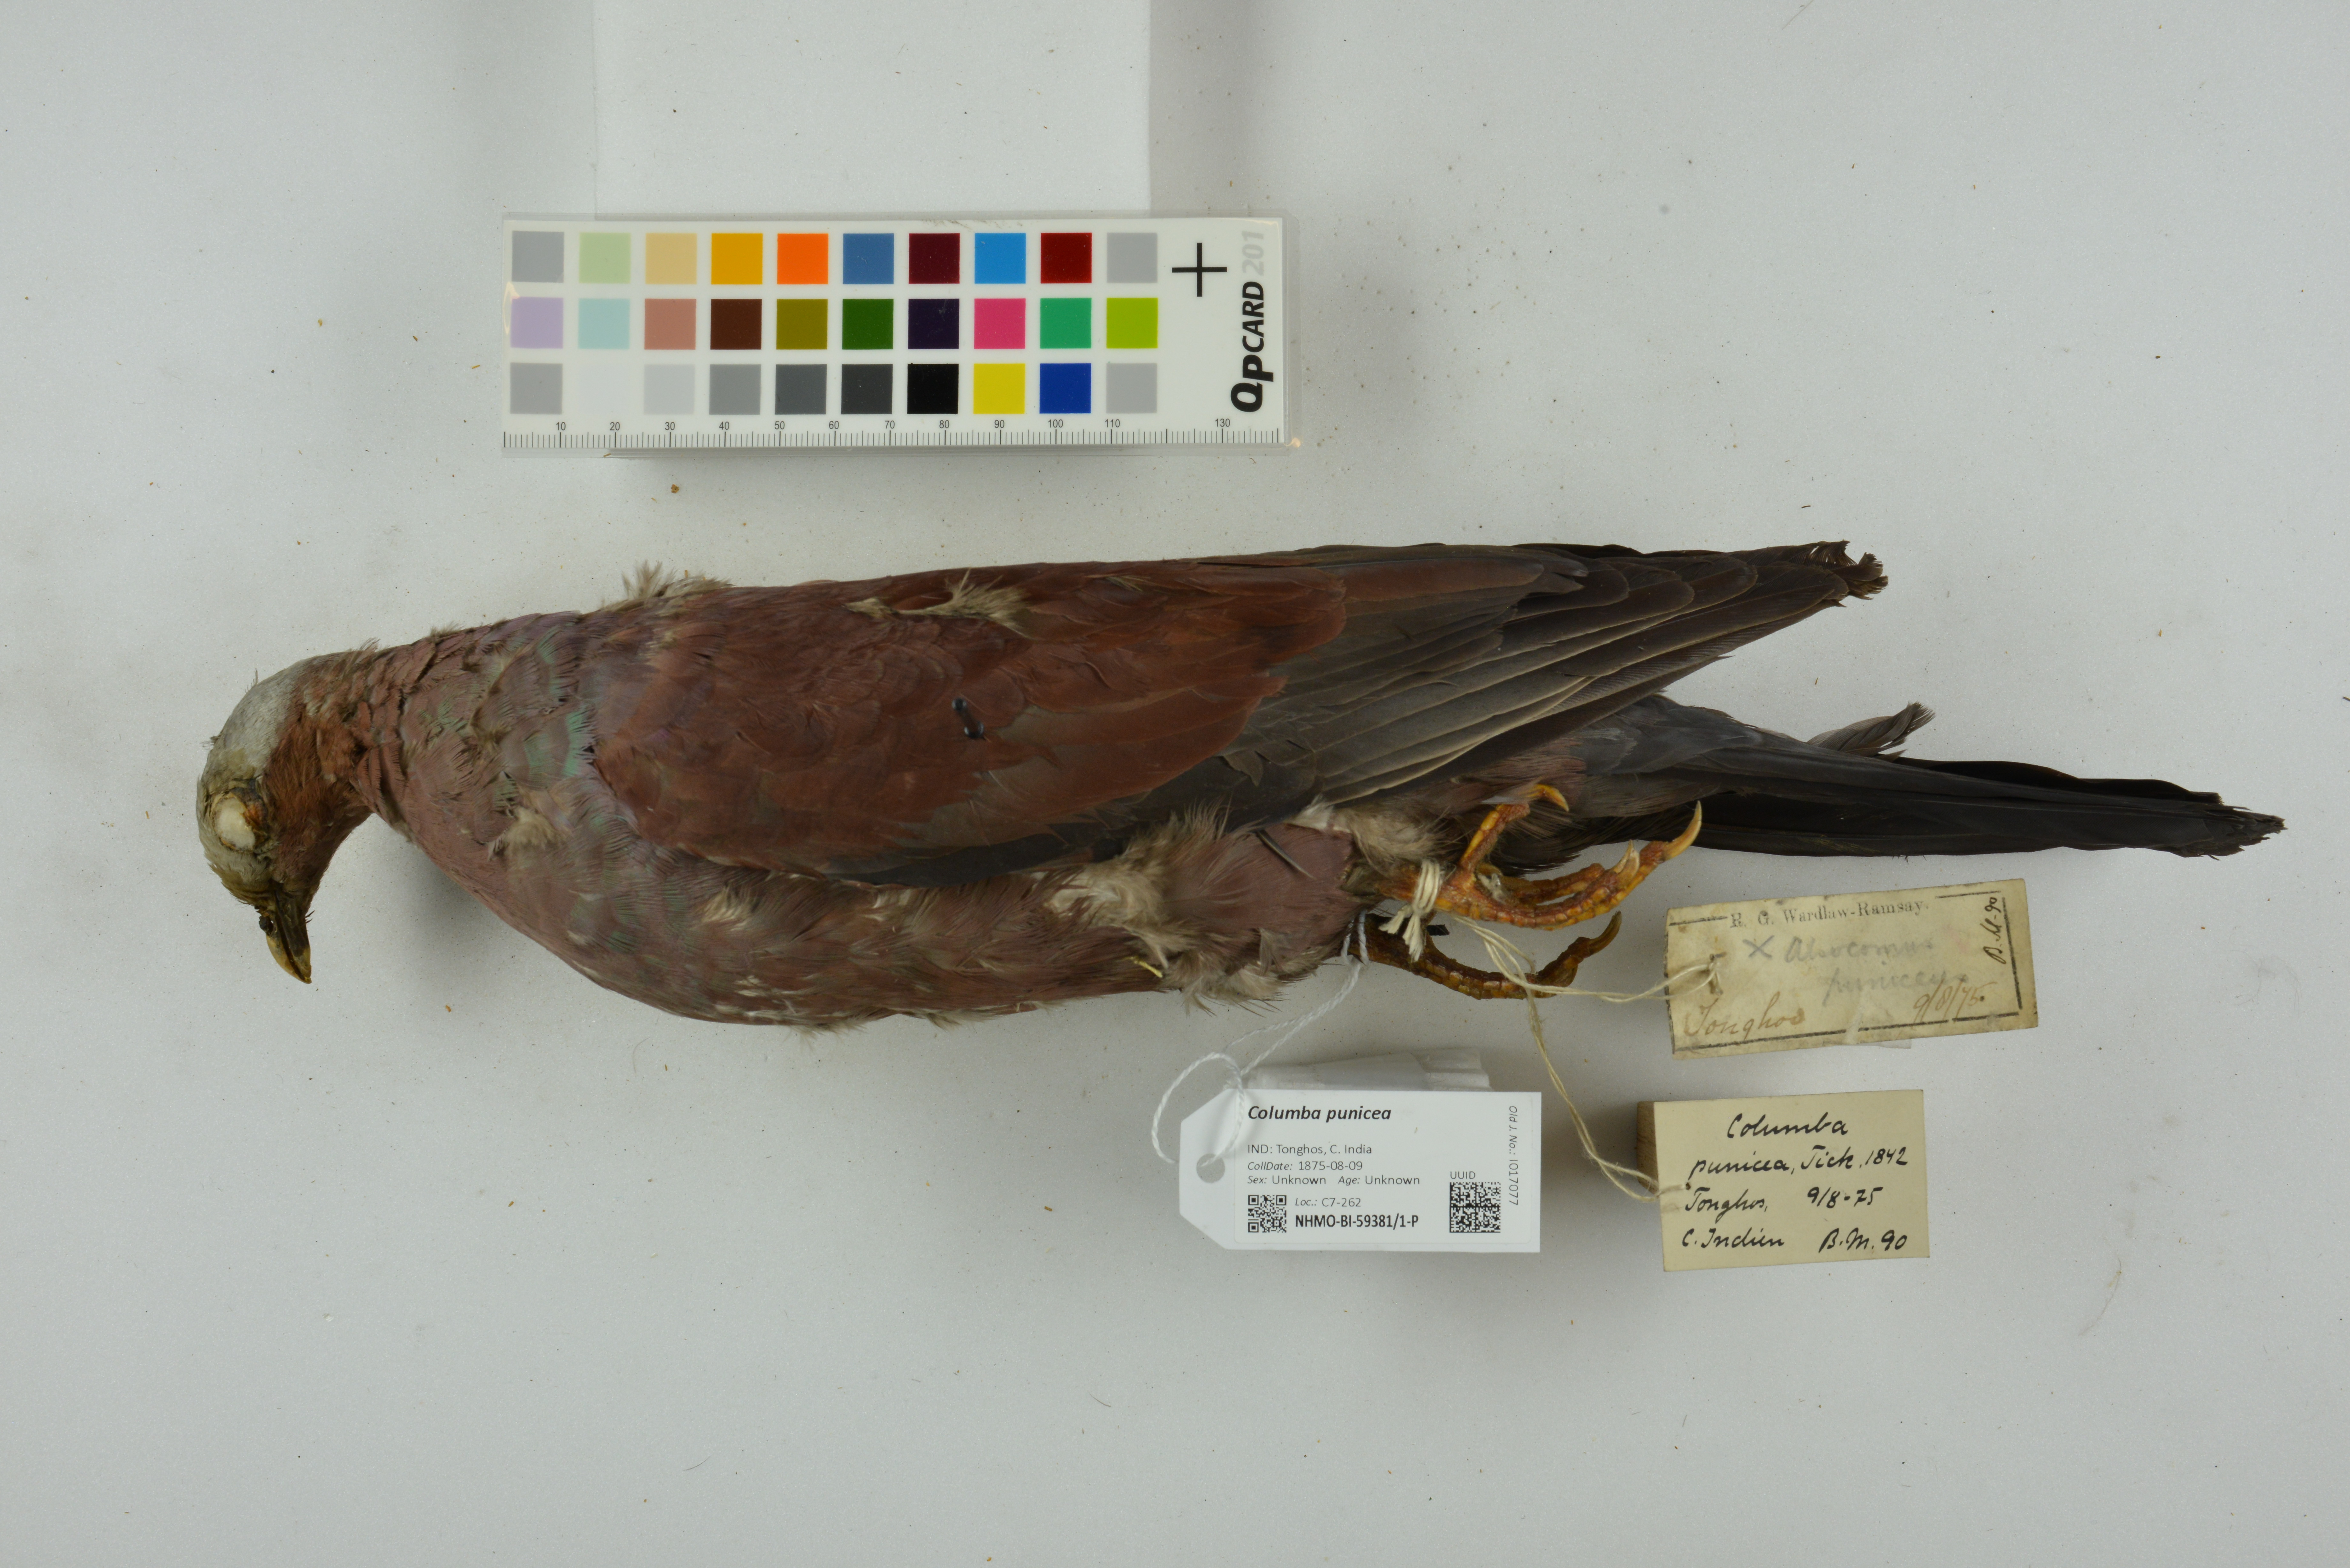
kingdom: Animalia
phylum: Chordata
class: Aves
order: Columbiformes
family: Columbidae
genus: Columba
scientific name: Columba punicea
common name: Pale-capped pigeon
